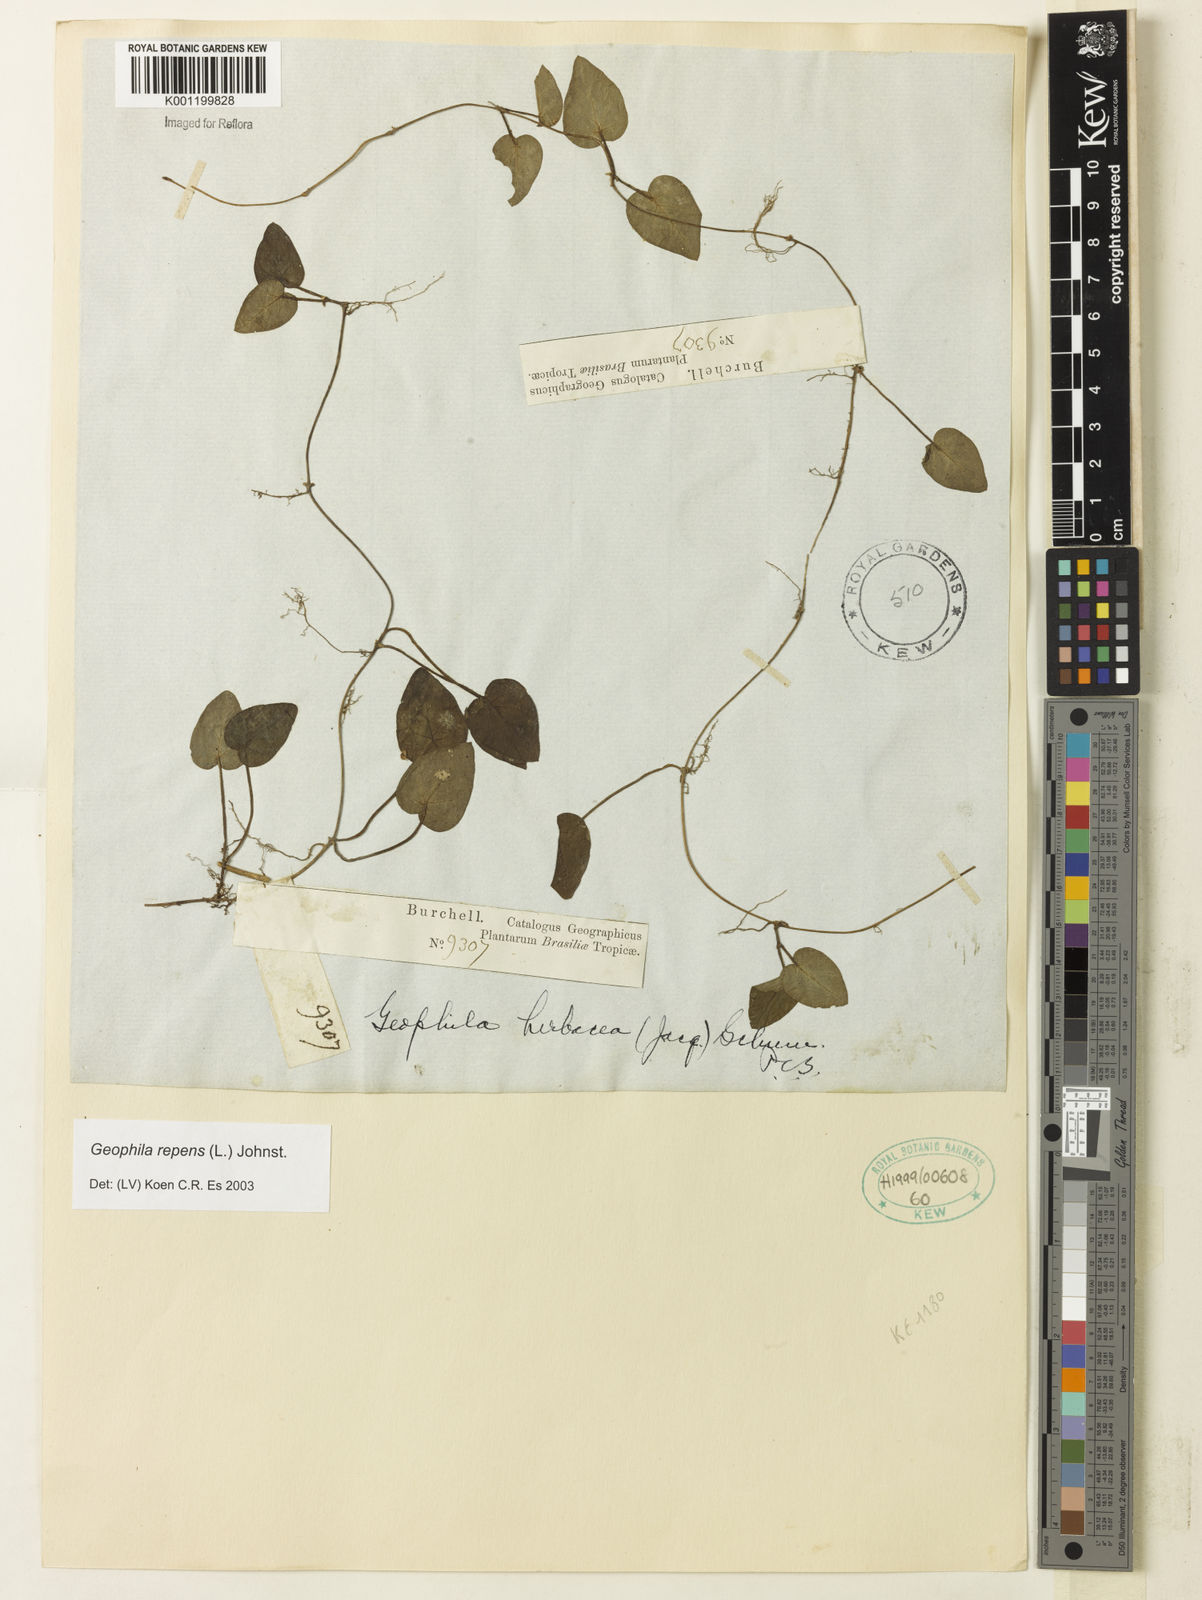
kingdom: Plantae
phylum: Tracheophyta
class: Magnoliopsida
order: Gentianales
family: Rubiaceae
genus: Geophila
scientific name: Geophila repens
